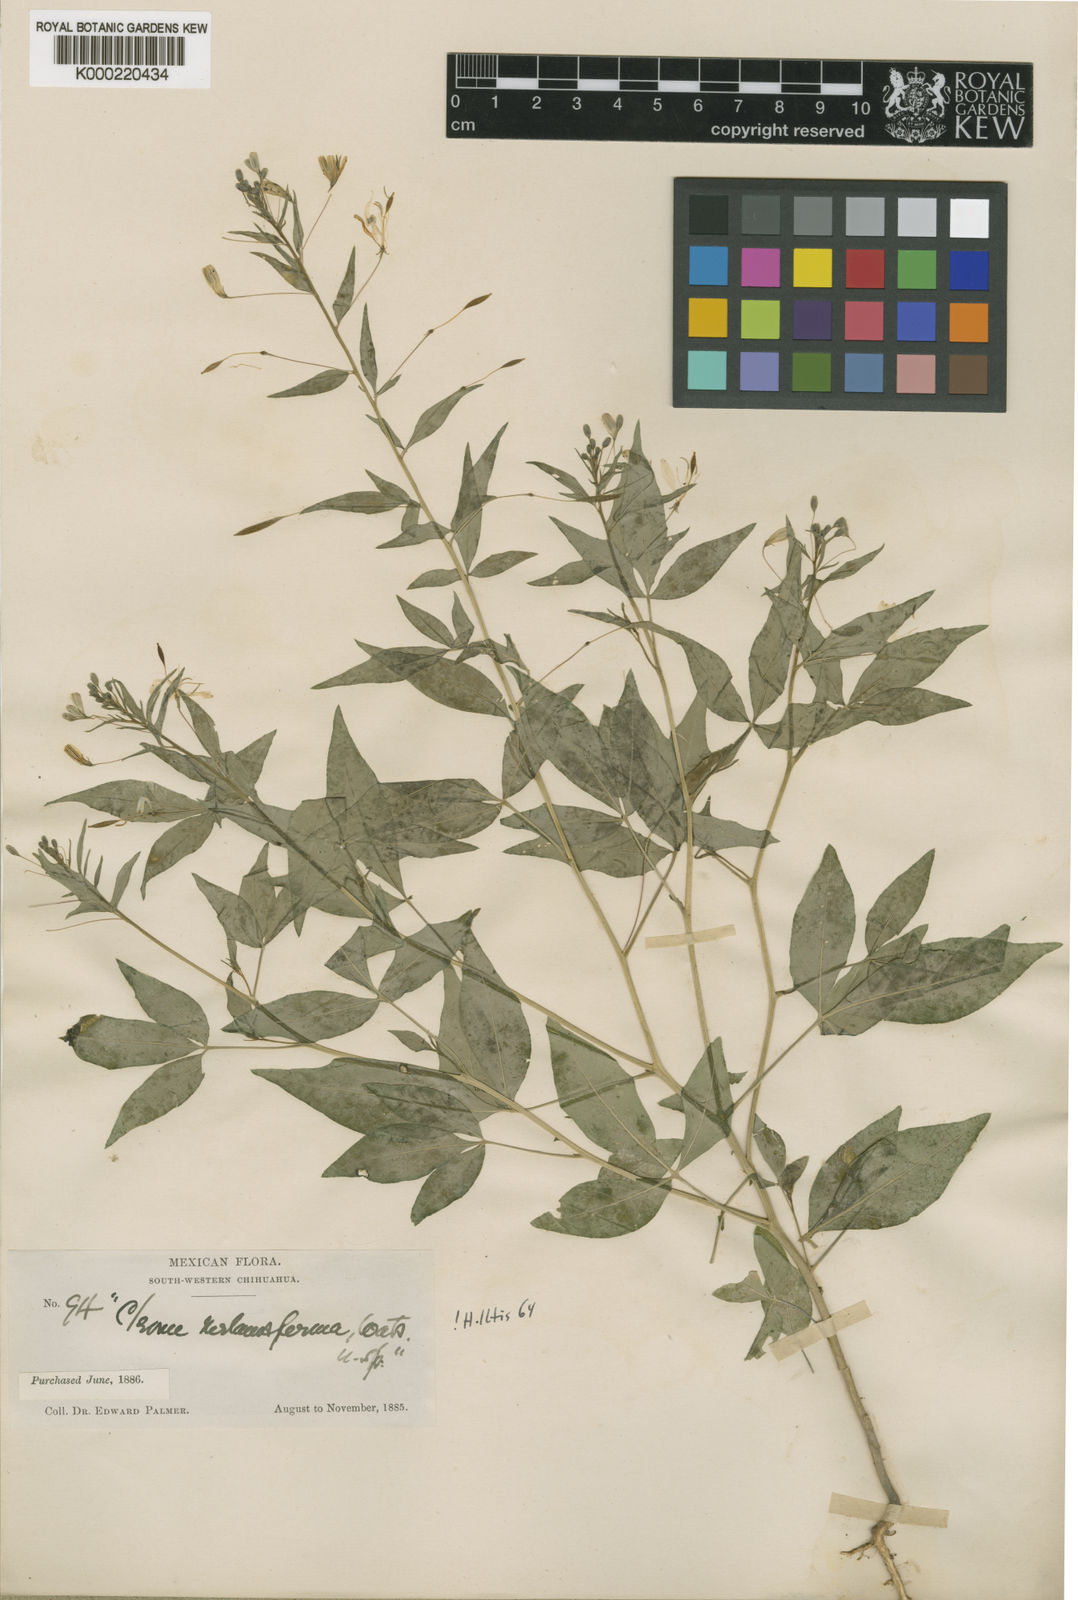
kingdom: Plantae
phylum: Tracheophyta
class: Magnoliopsida
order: Brassicales
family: Cleomaceae
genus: Cleoserrata
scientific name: Cleoserrata melanosperma
